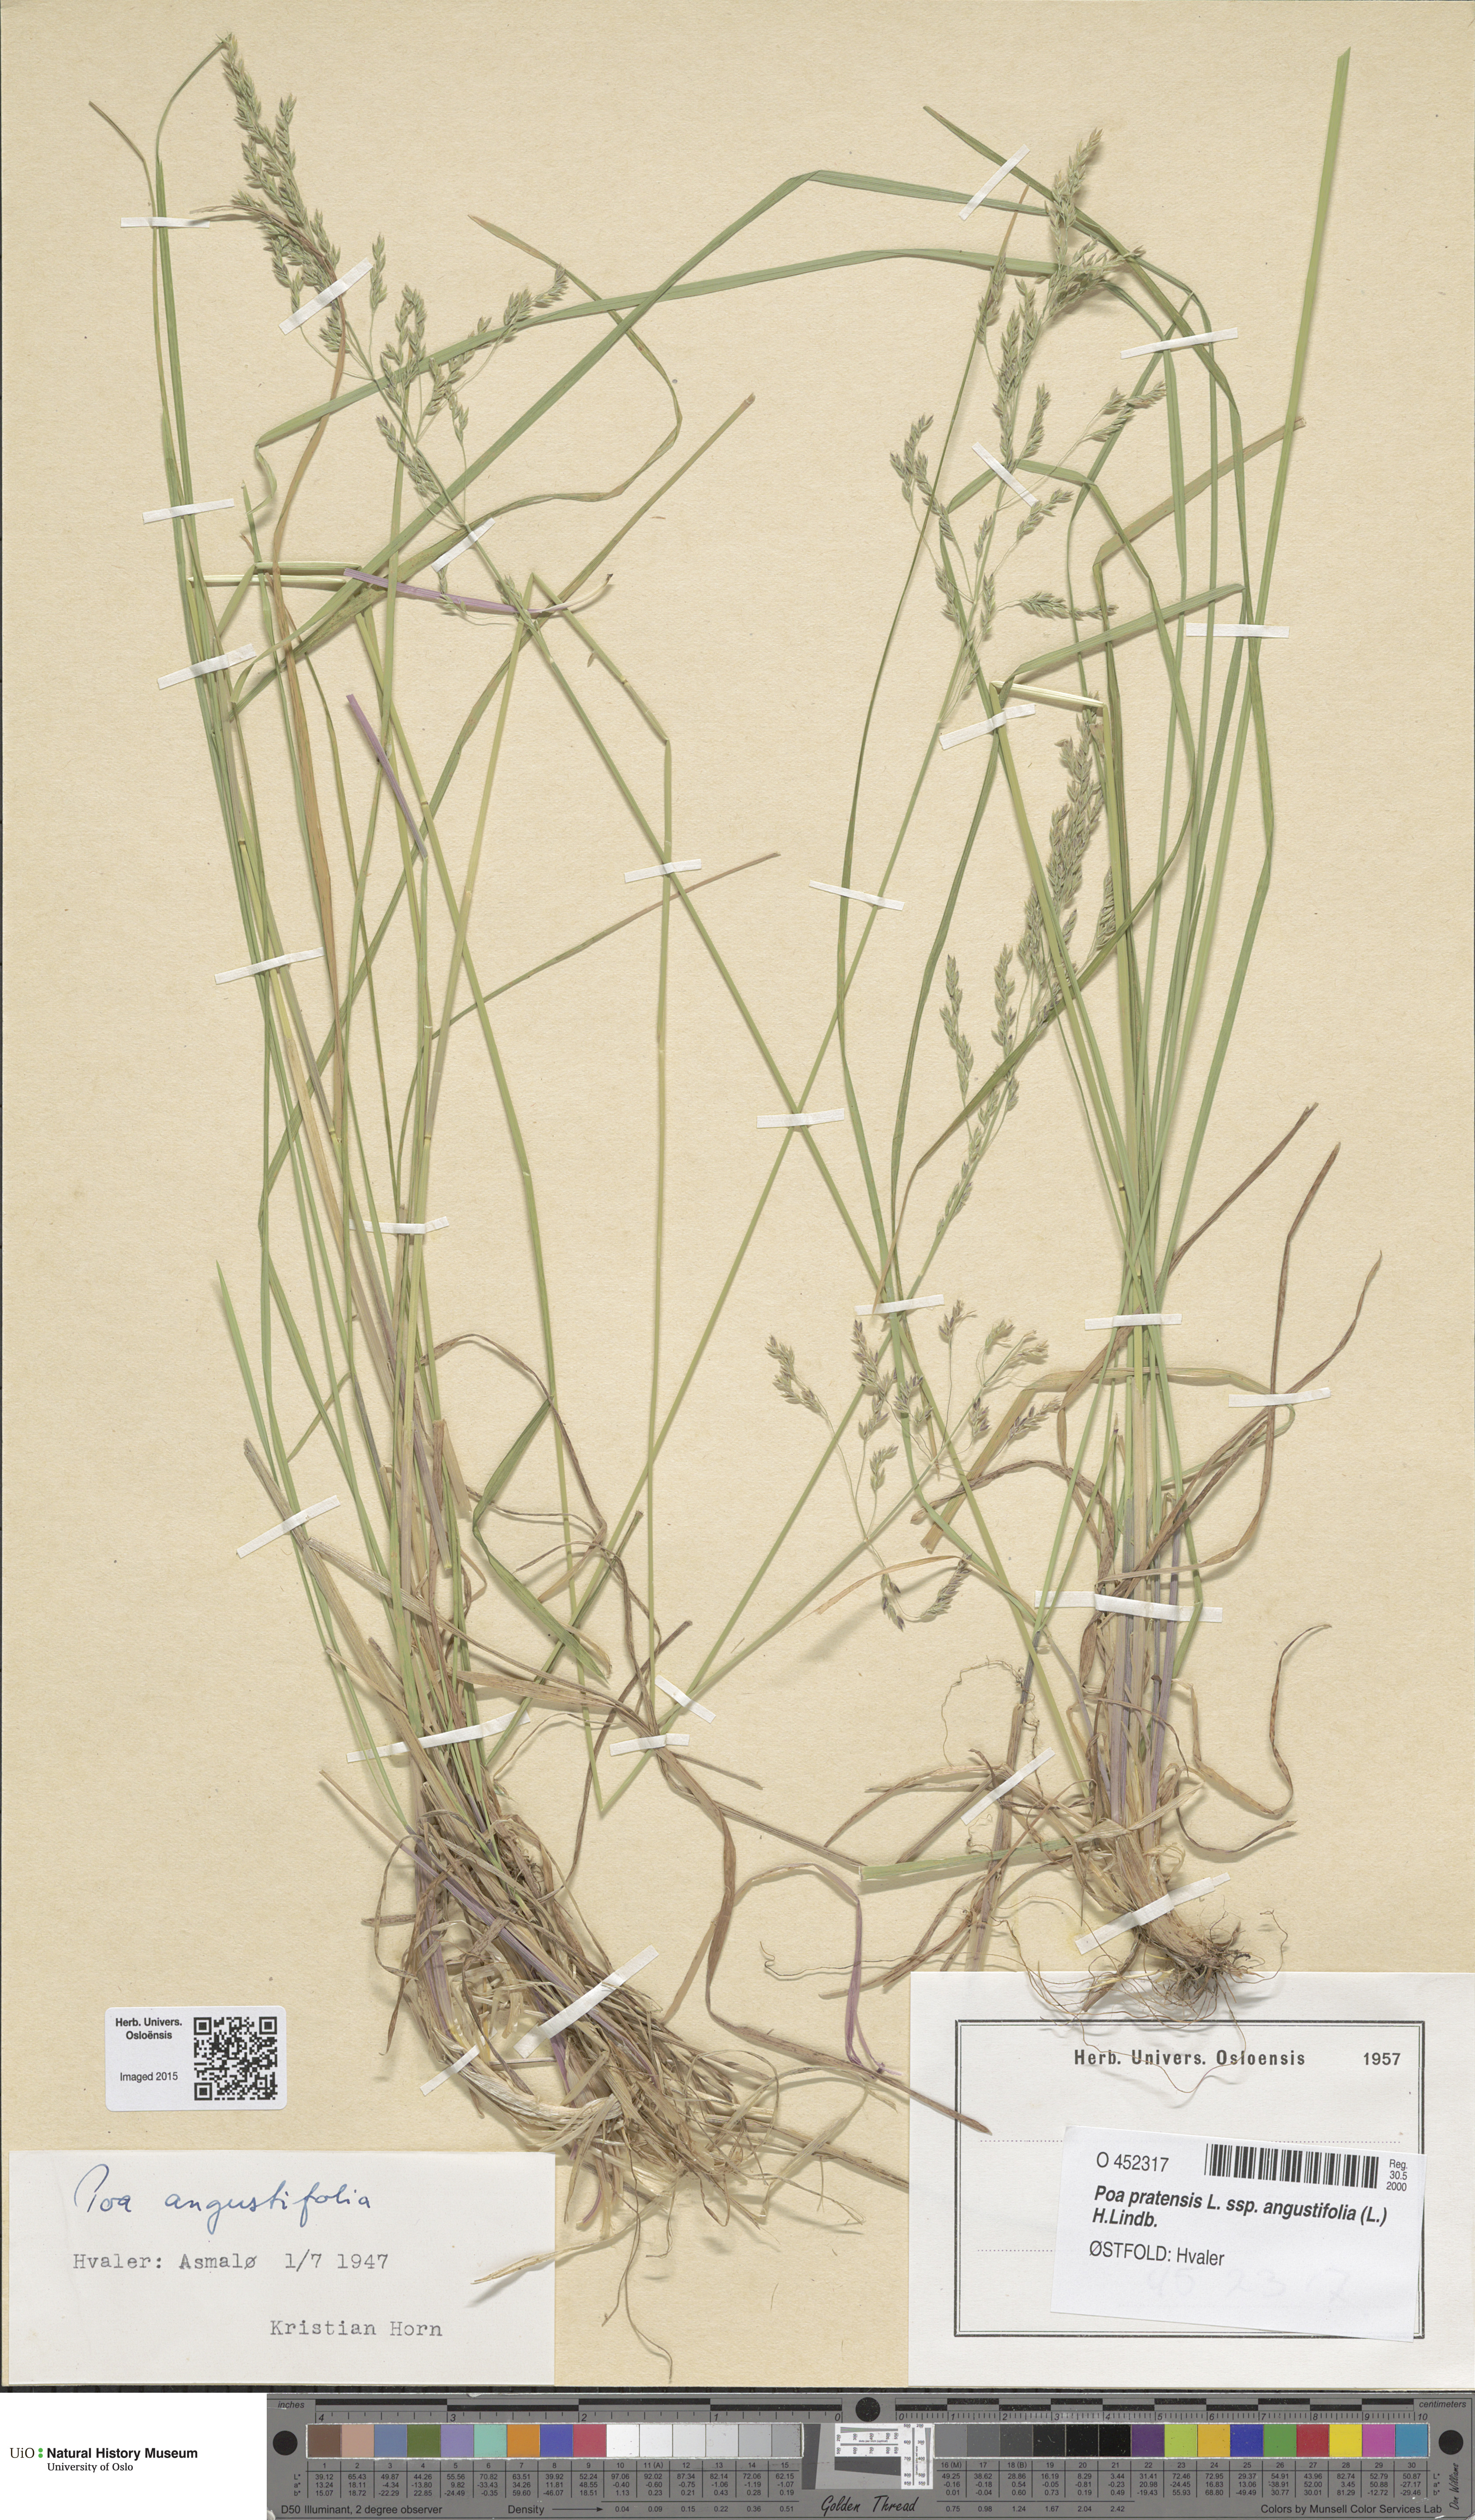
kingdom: Plantae
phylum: Tracheophyta
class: Liliopsida
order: Poales
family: Poaceae
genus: Poa
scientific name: Poa angustifolia
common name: Narrow-leaved meadow-grass
